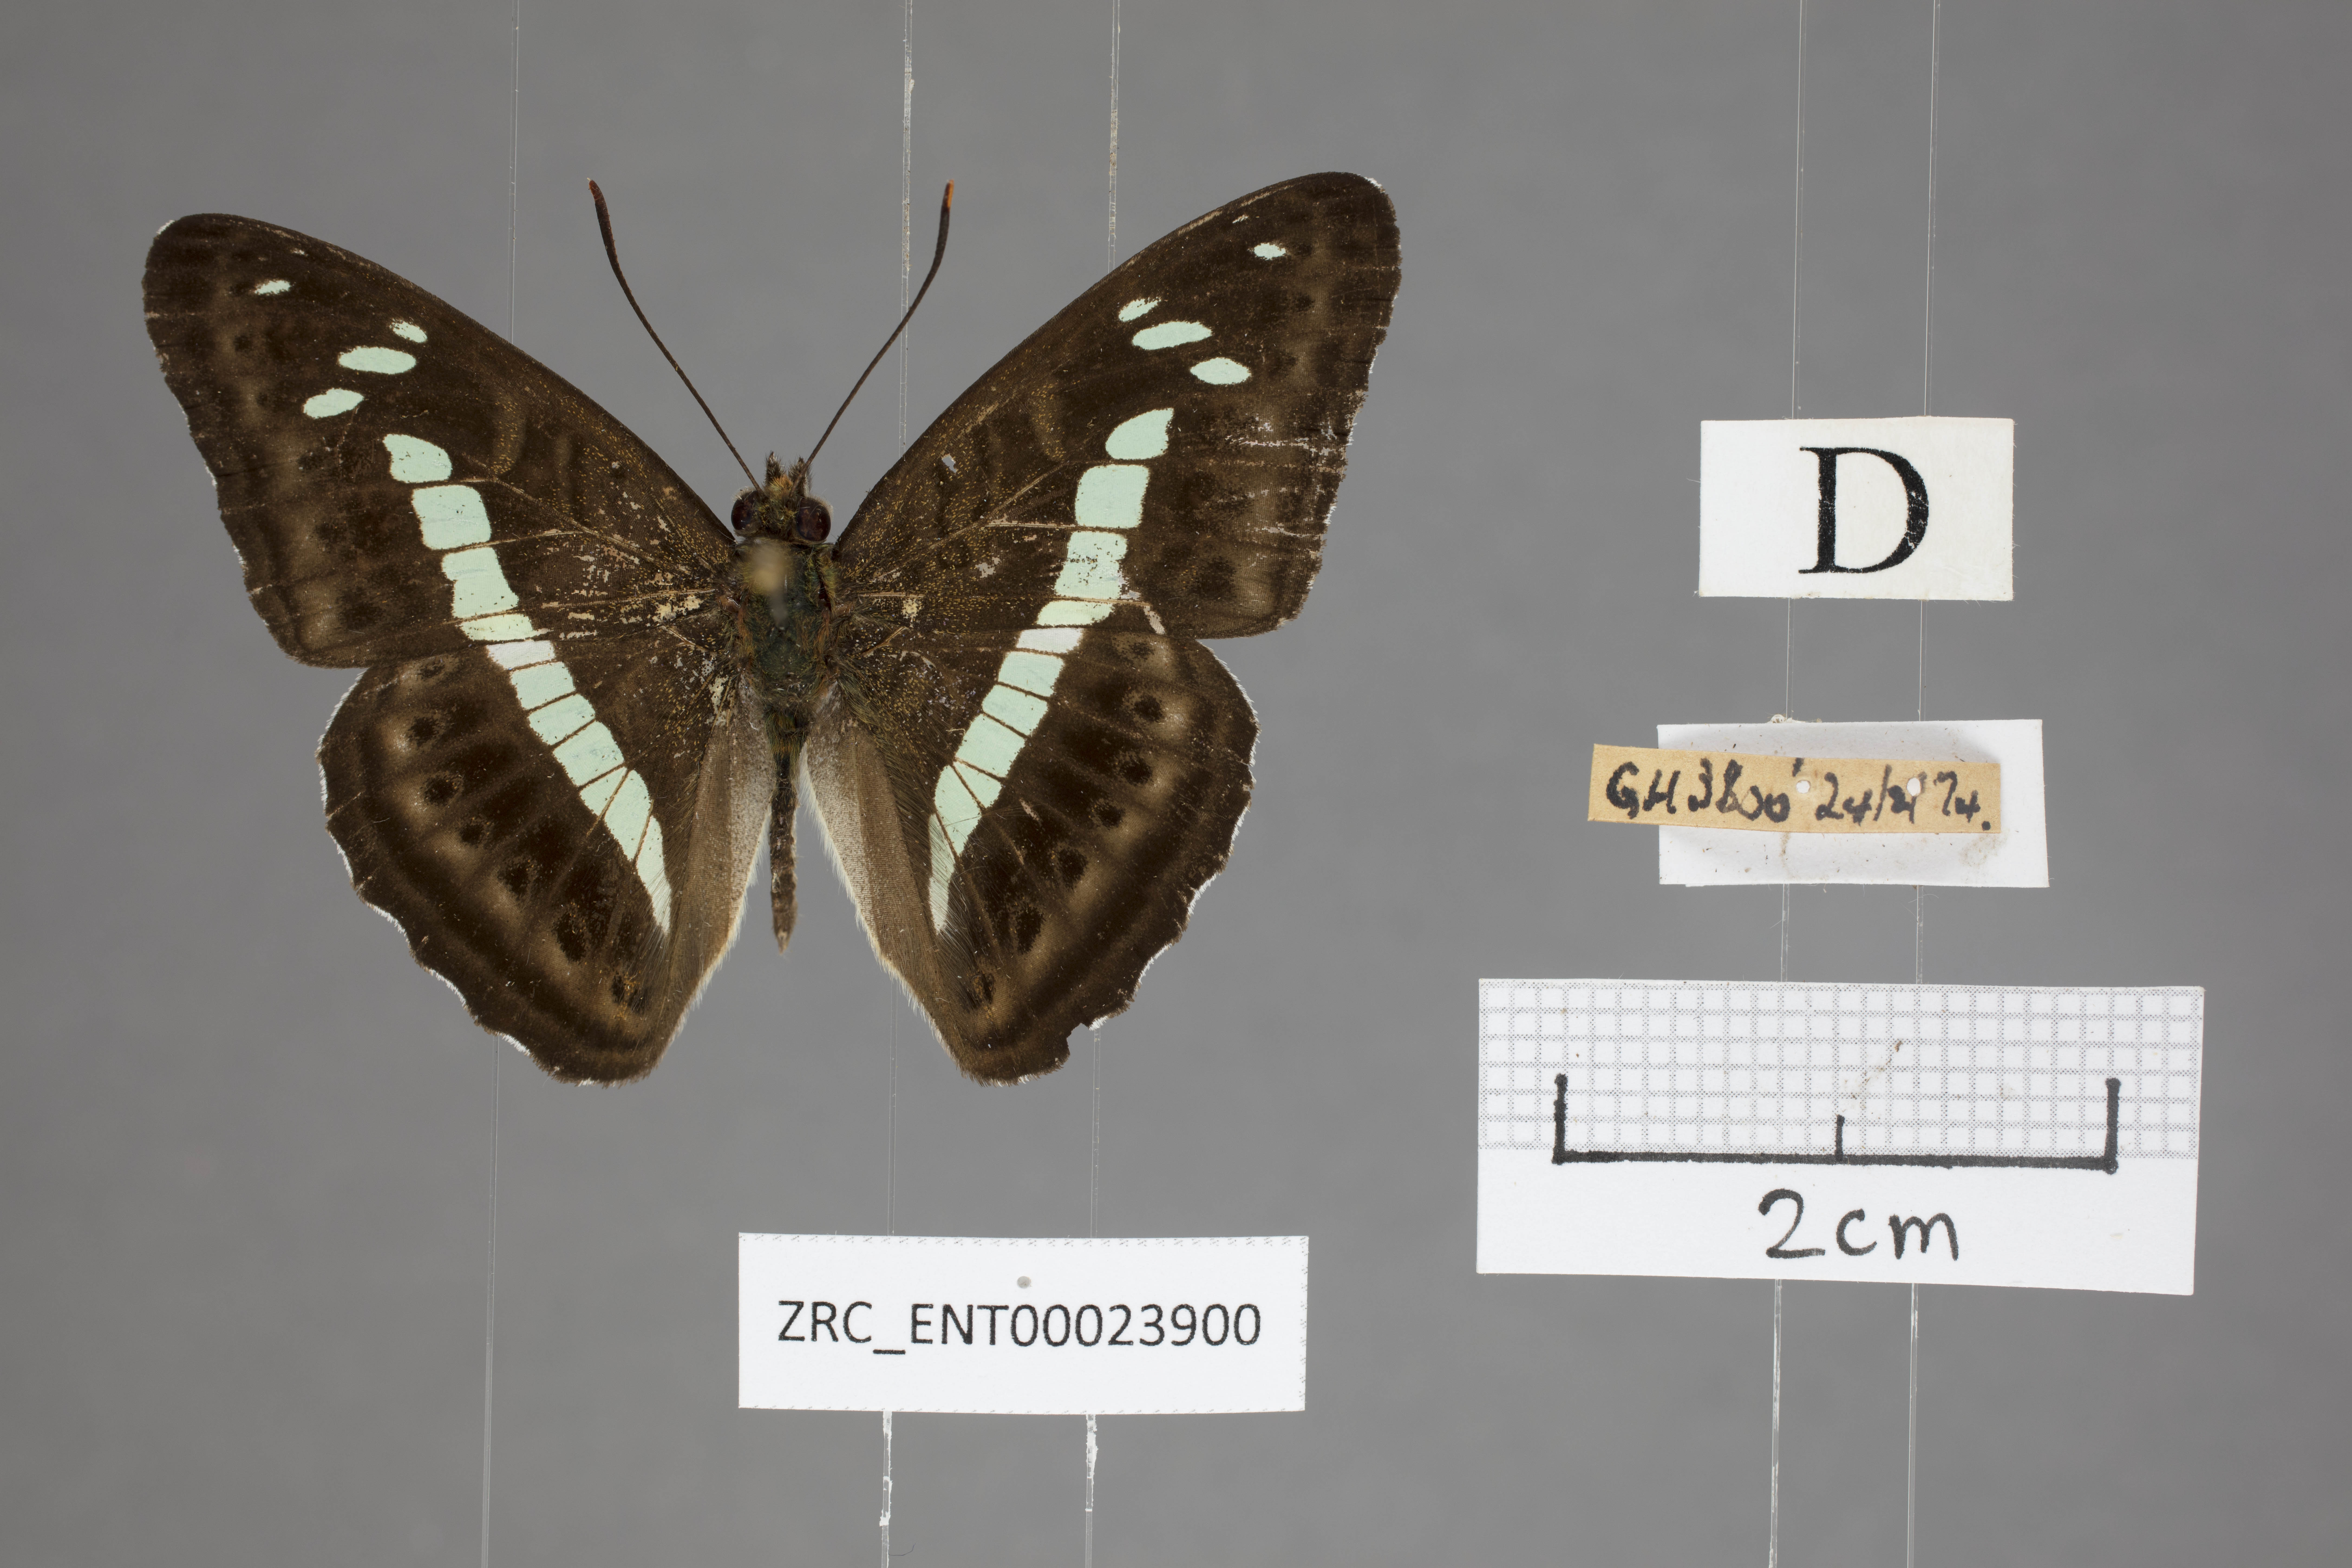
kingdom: Animalia
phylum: Arthropoda
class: Insecta
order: Lepidoptera
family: Nymphalidae
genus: Limenitis
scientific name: Limenitis
